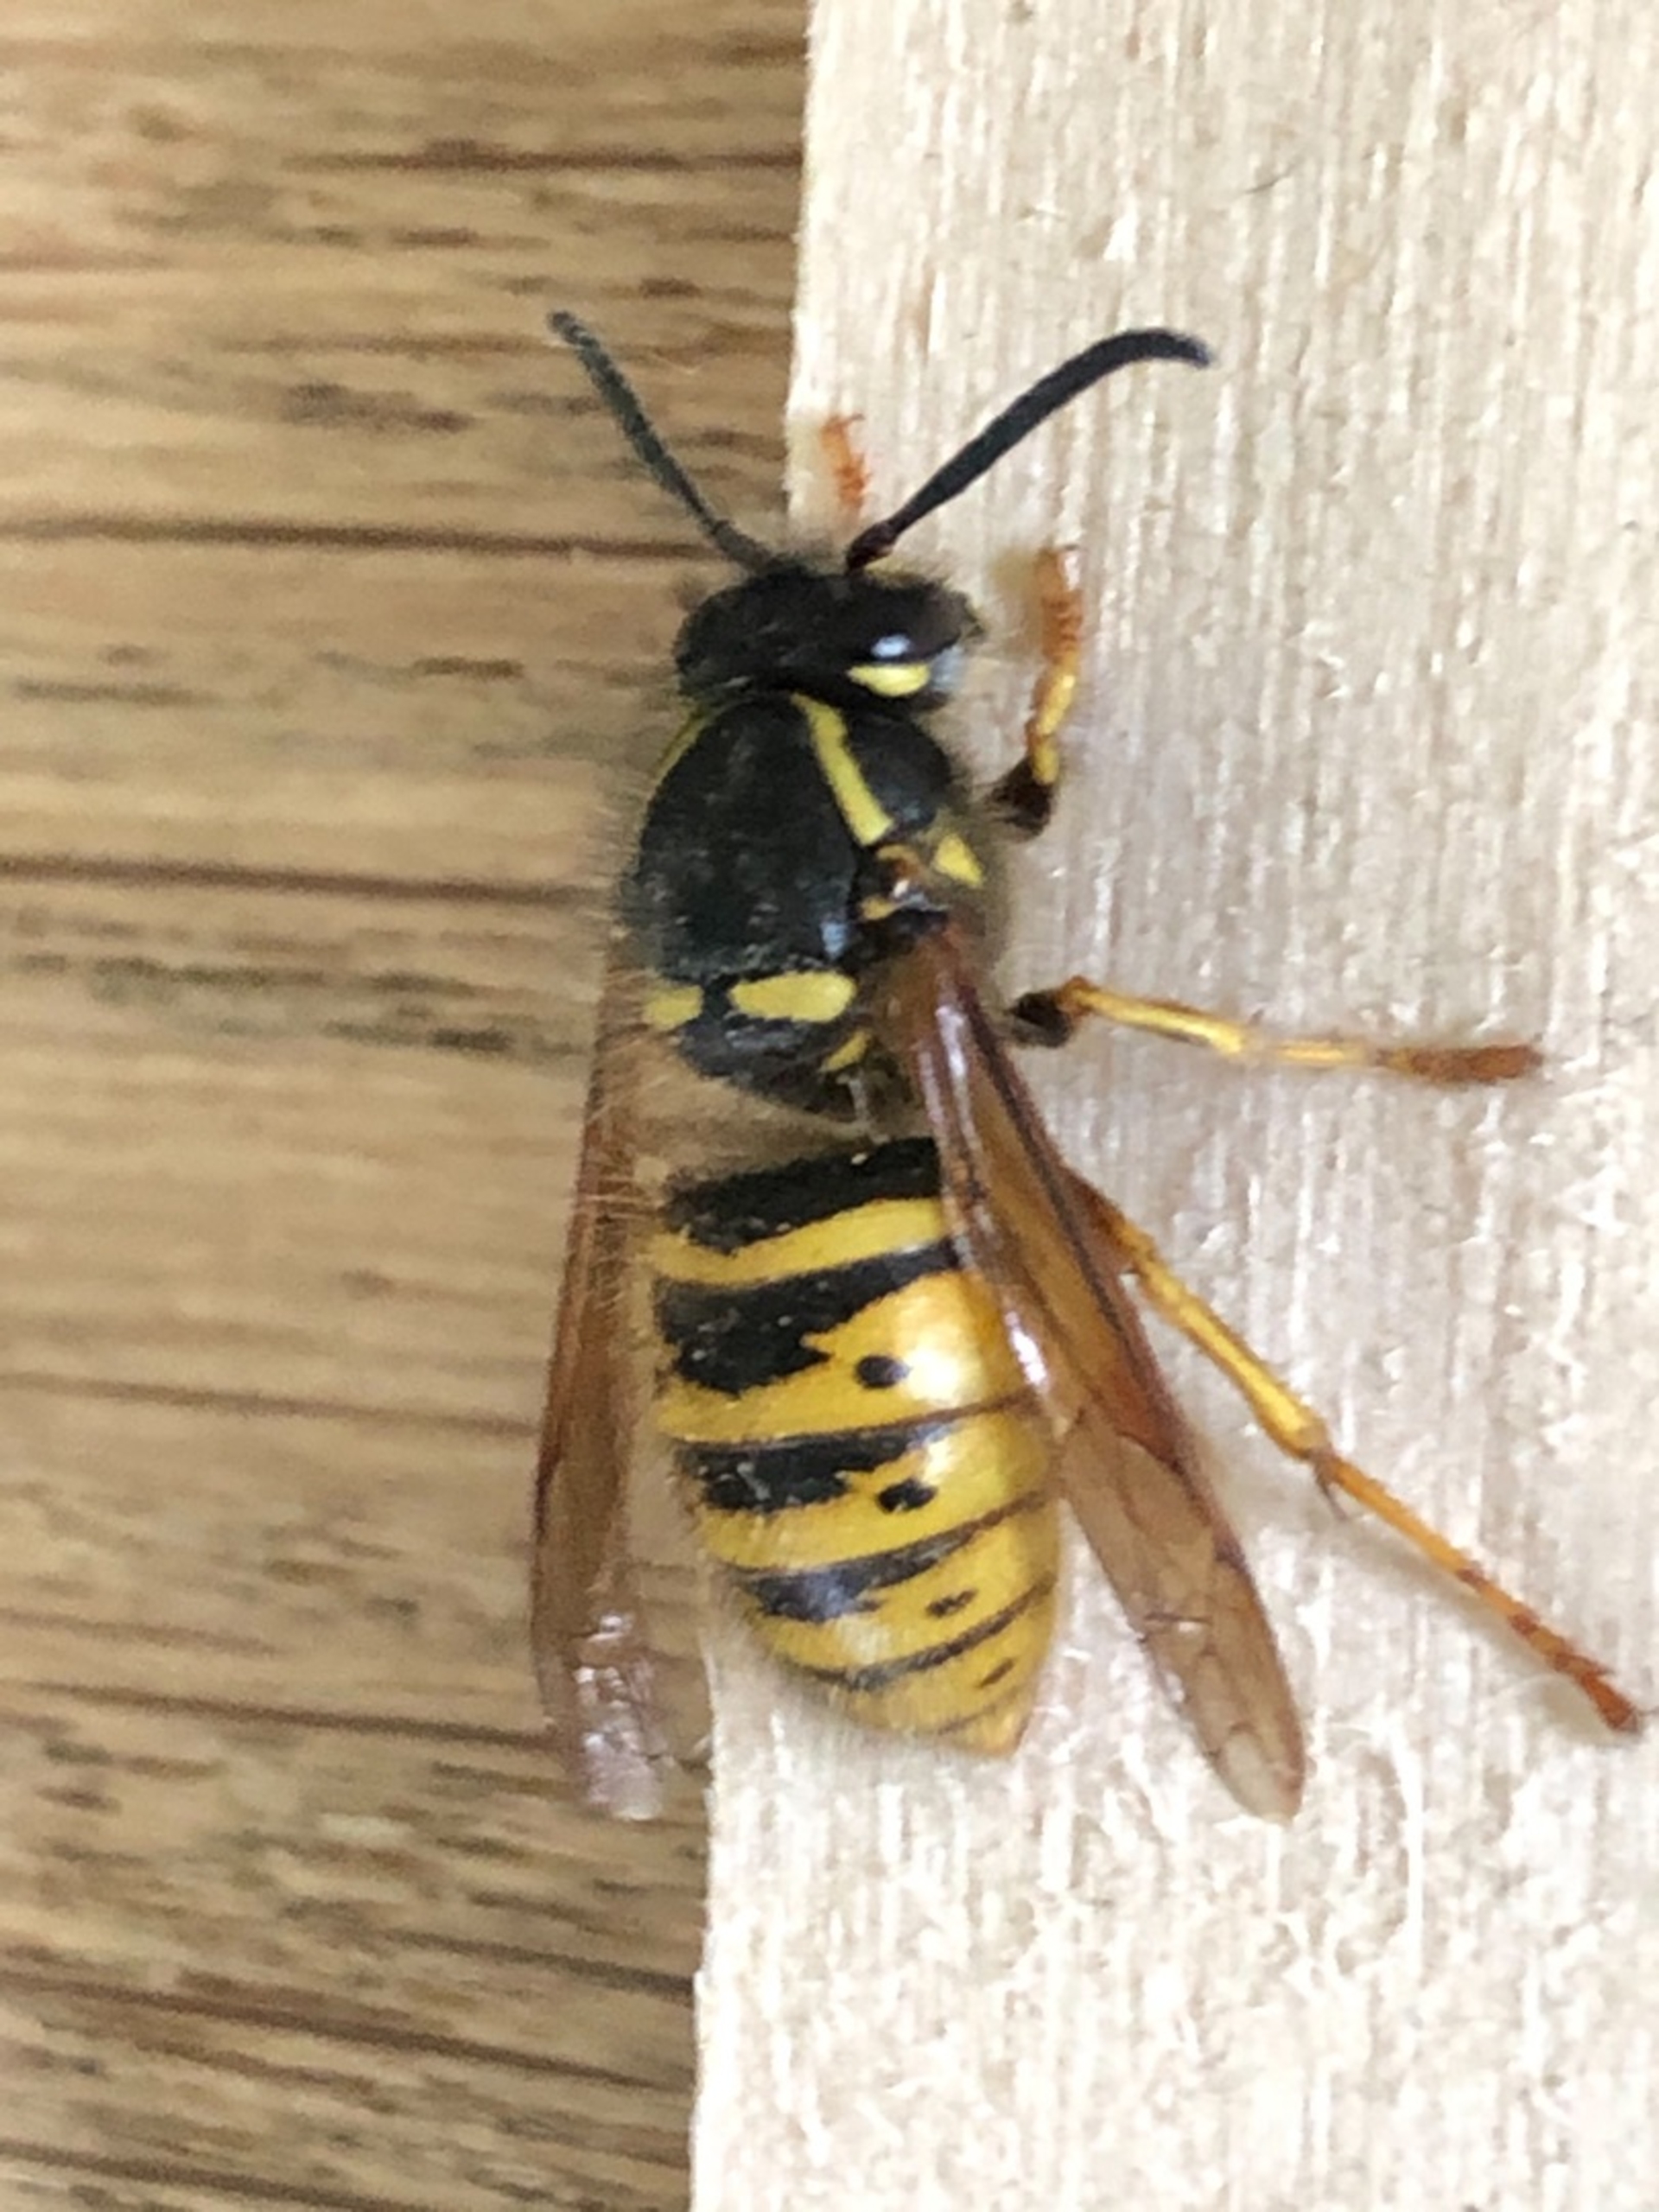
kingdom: Animalia
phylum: Arthropoda
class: Insecta
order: Hymenoptera
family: Vespidae
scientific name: Vespidae
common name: Gedehamse
